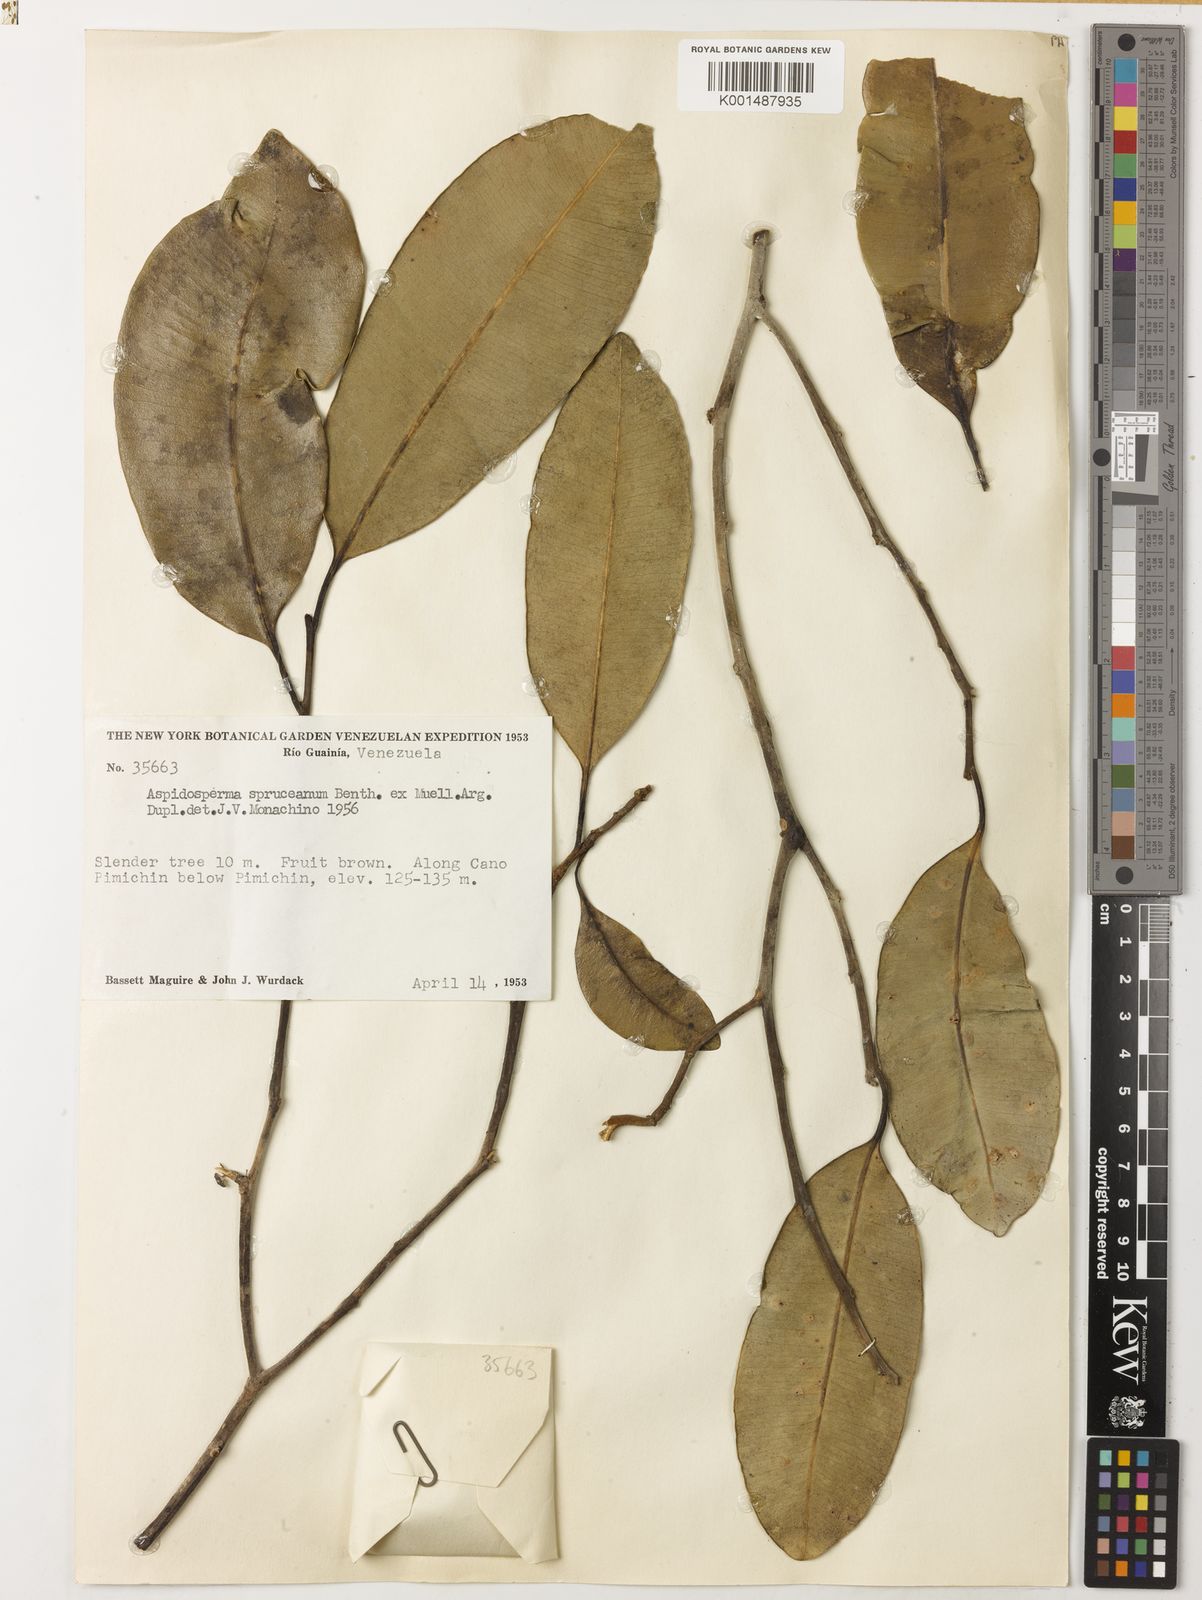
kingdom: Plantae
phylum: Tracheophyta
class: Magnoliopsida
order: Gentianales
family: Apocynaceae
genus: Aspidosperma
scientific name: Aspidosperma spruceanum
